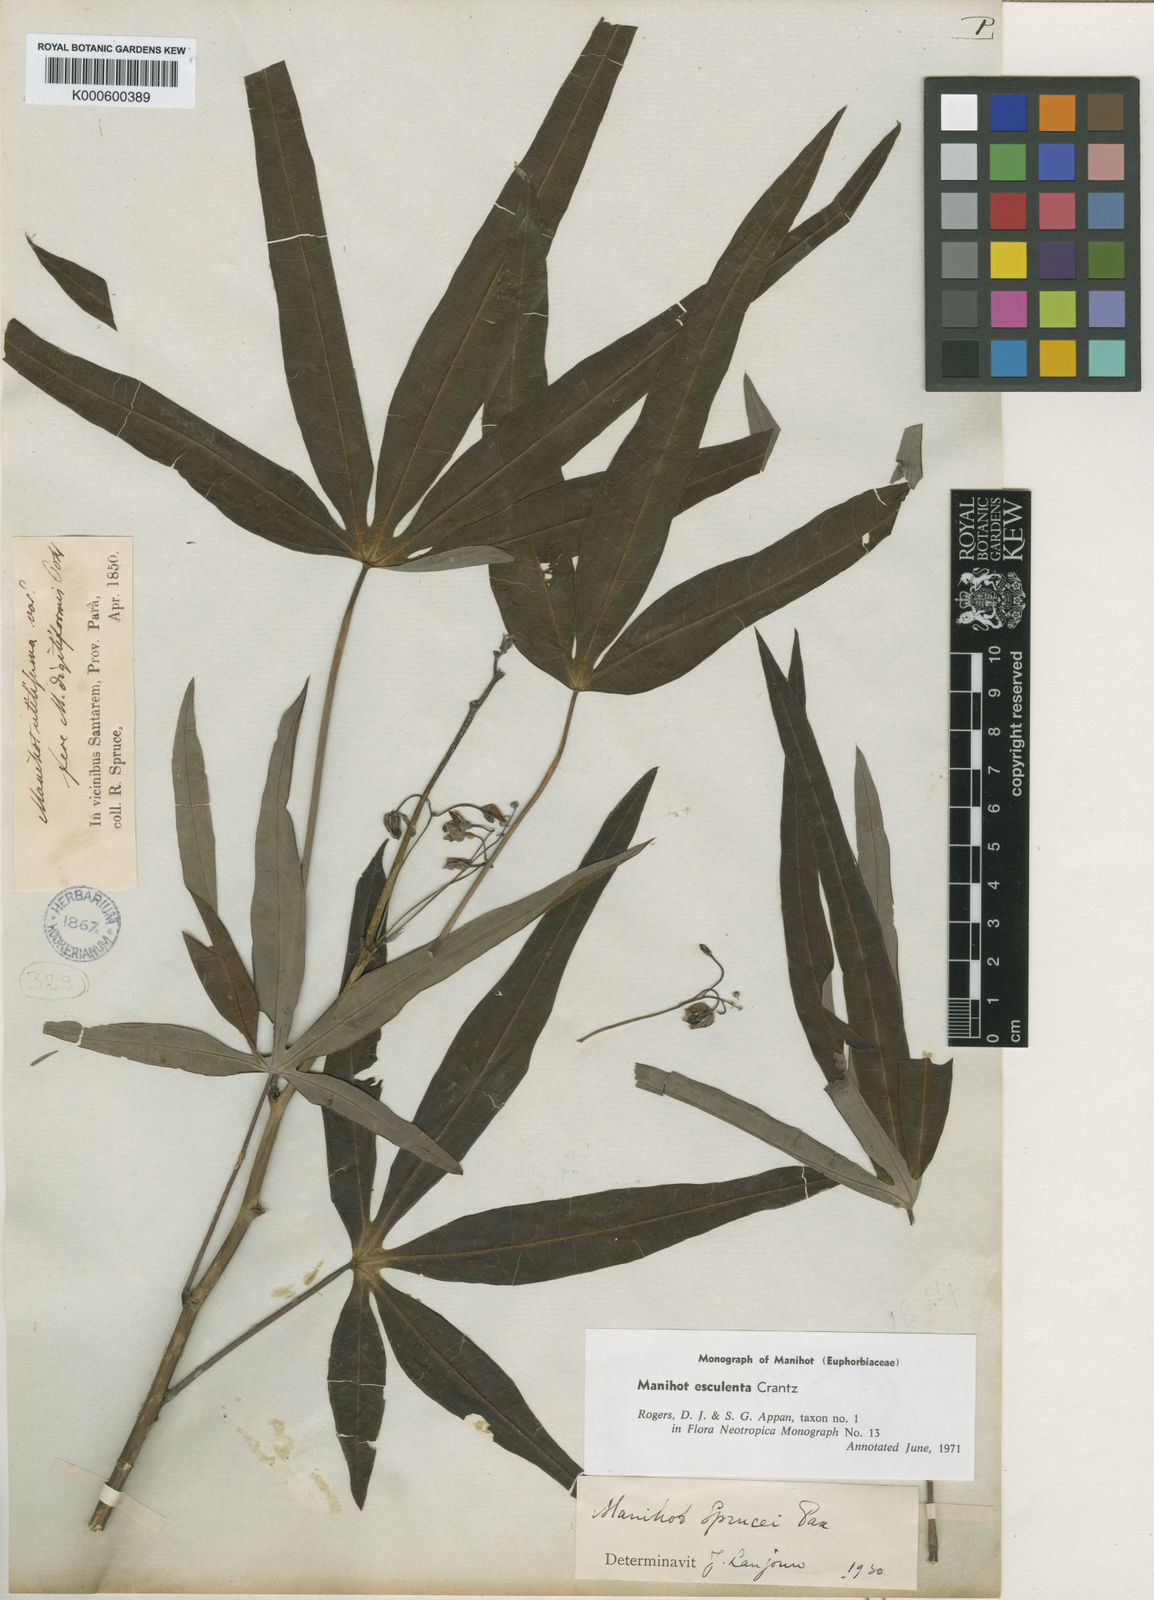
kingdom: Plantae
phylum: Tracheophyta
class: Magnoliopsida
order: Malpighiales
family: Euphorbiaceae
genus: Manihot
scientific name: Manihot esculenta
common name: Cassava
